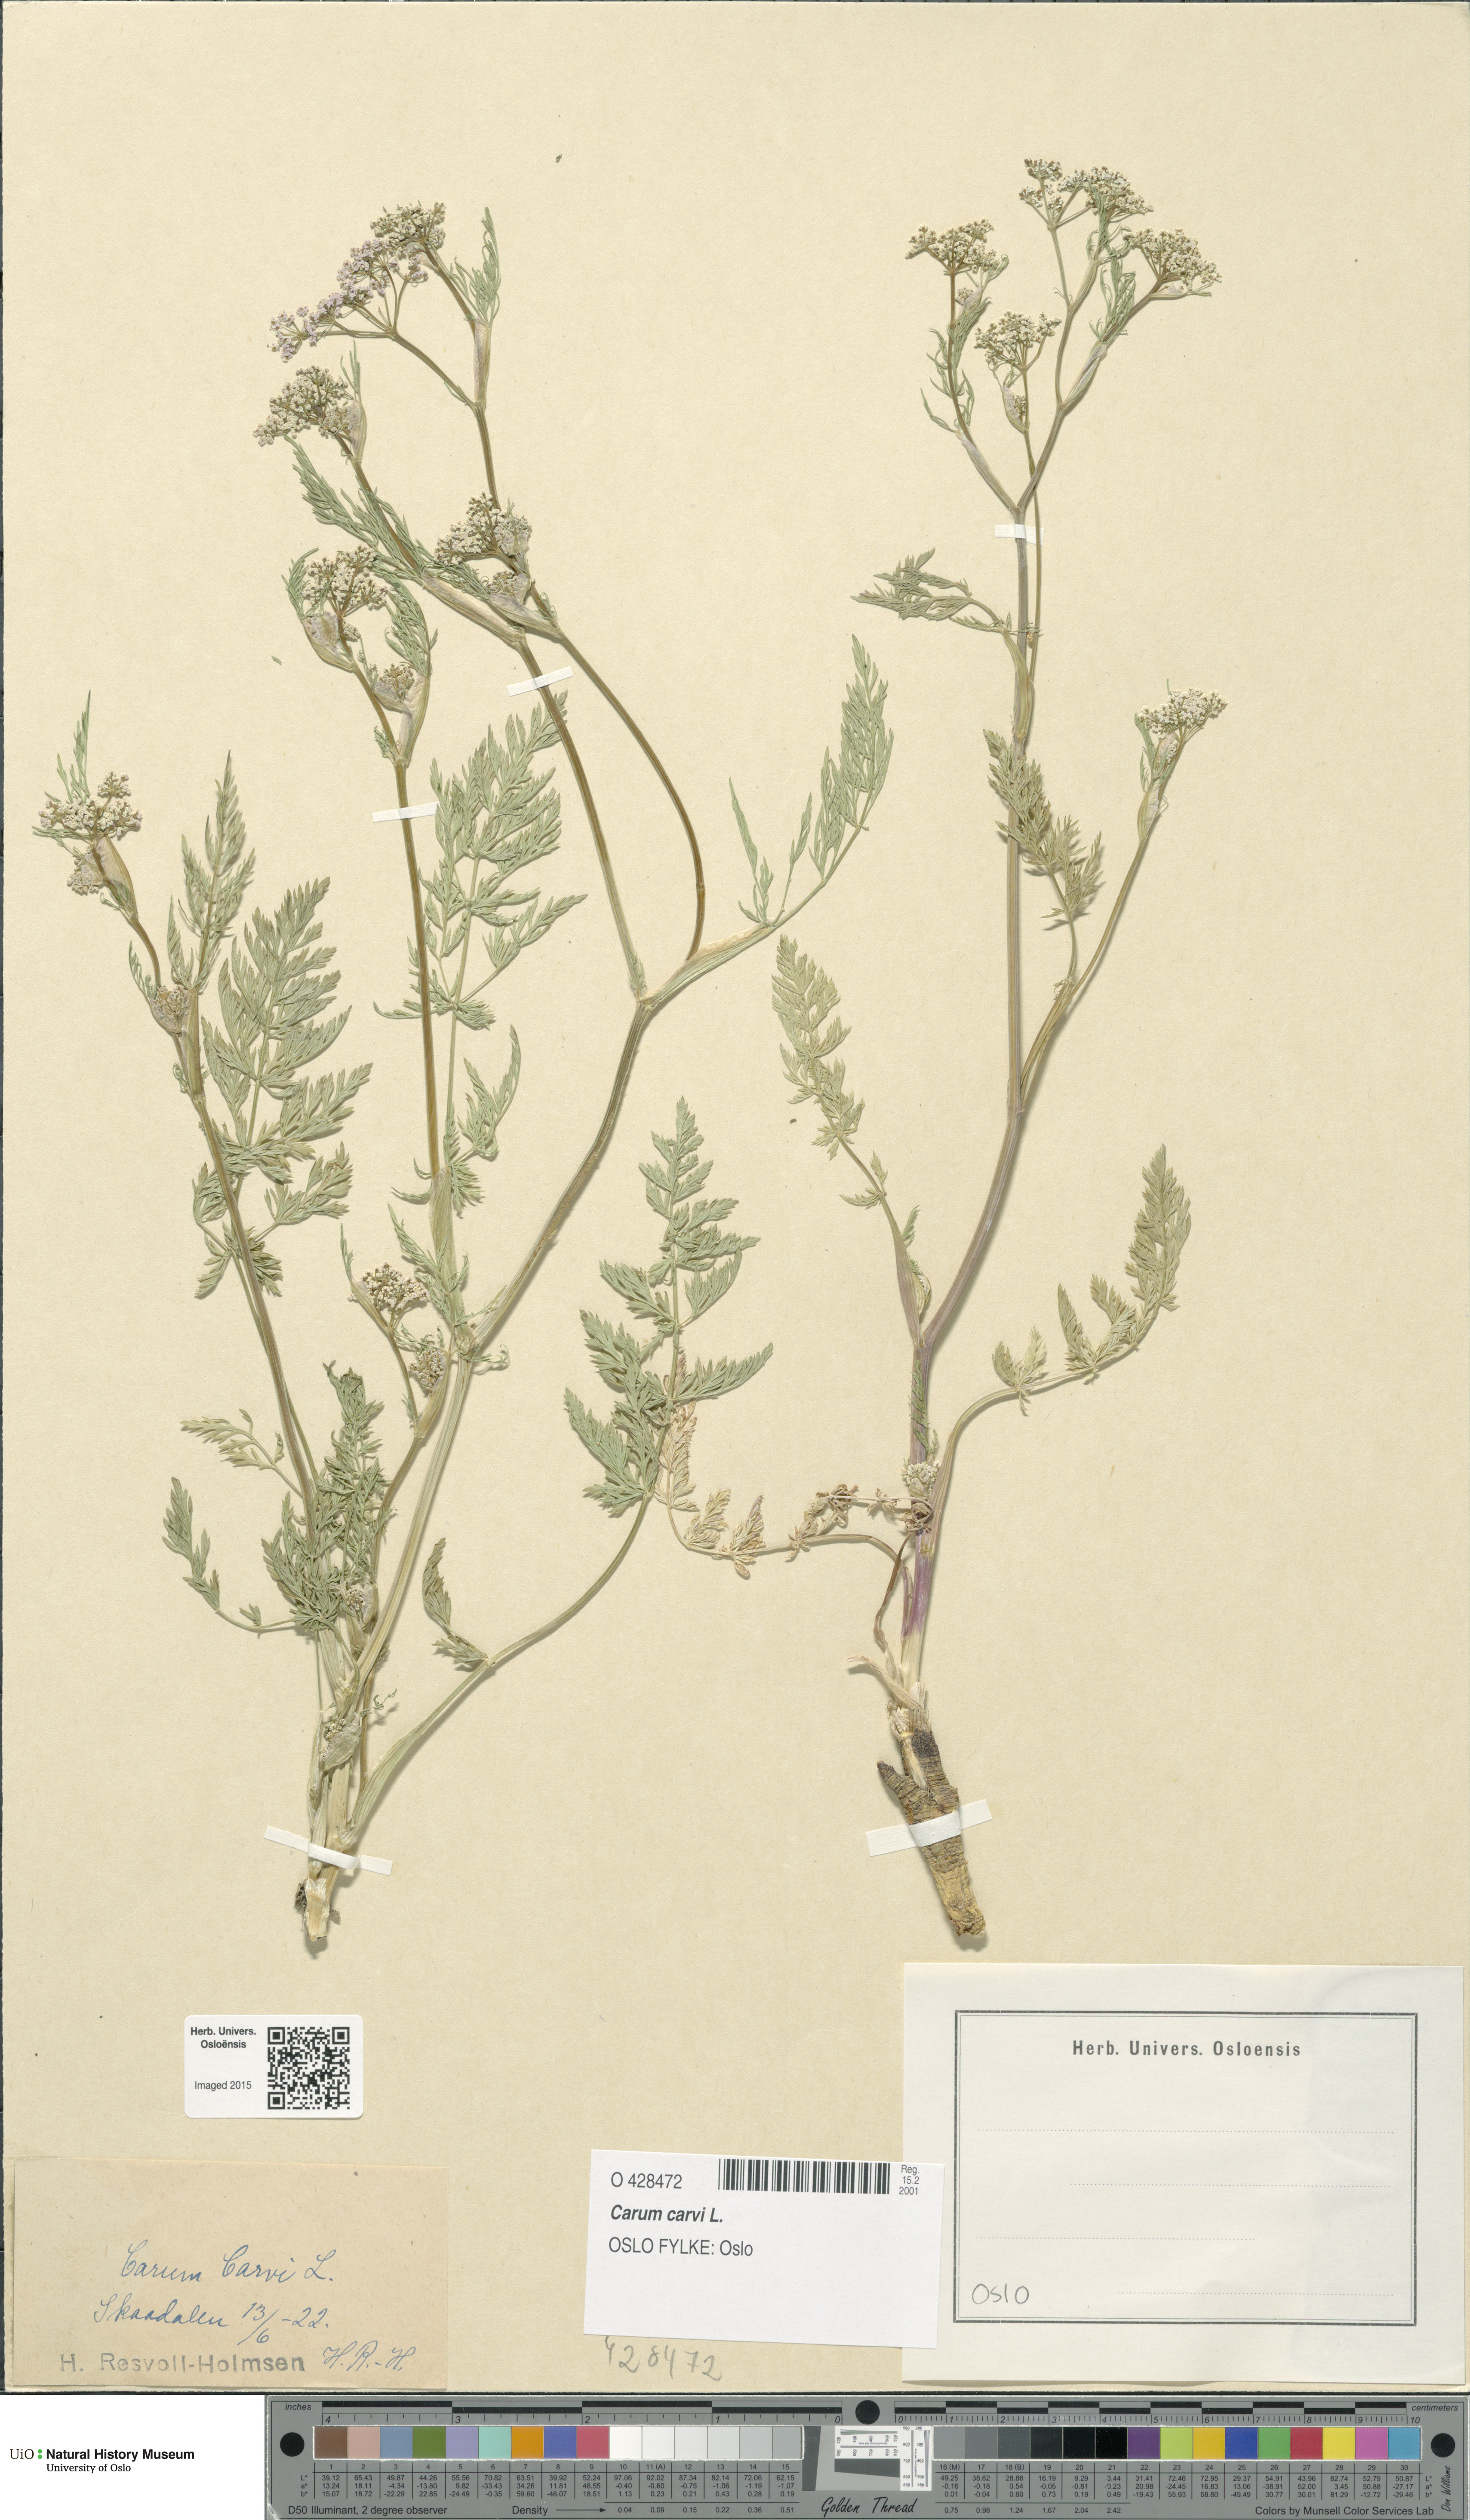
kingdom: Plantae
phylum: Tracheophyta
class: Magnoliopsida
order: Apiales
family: Apiaceae
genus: Carum
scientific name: Carum carvi
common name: Caraway
